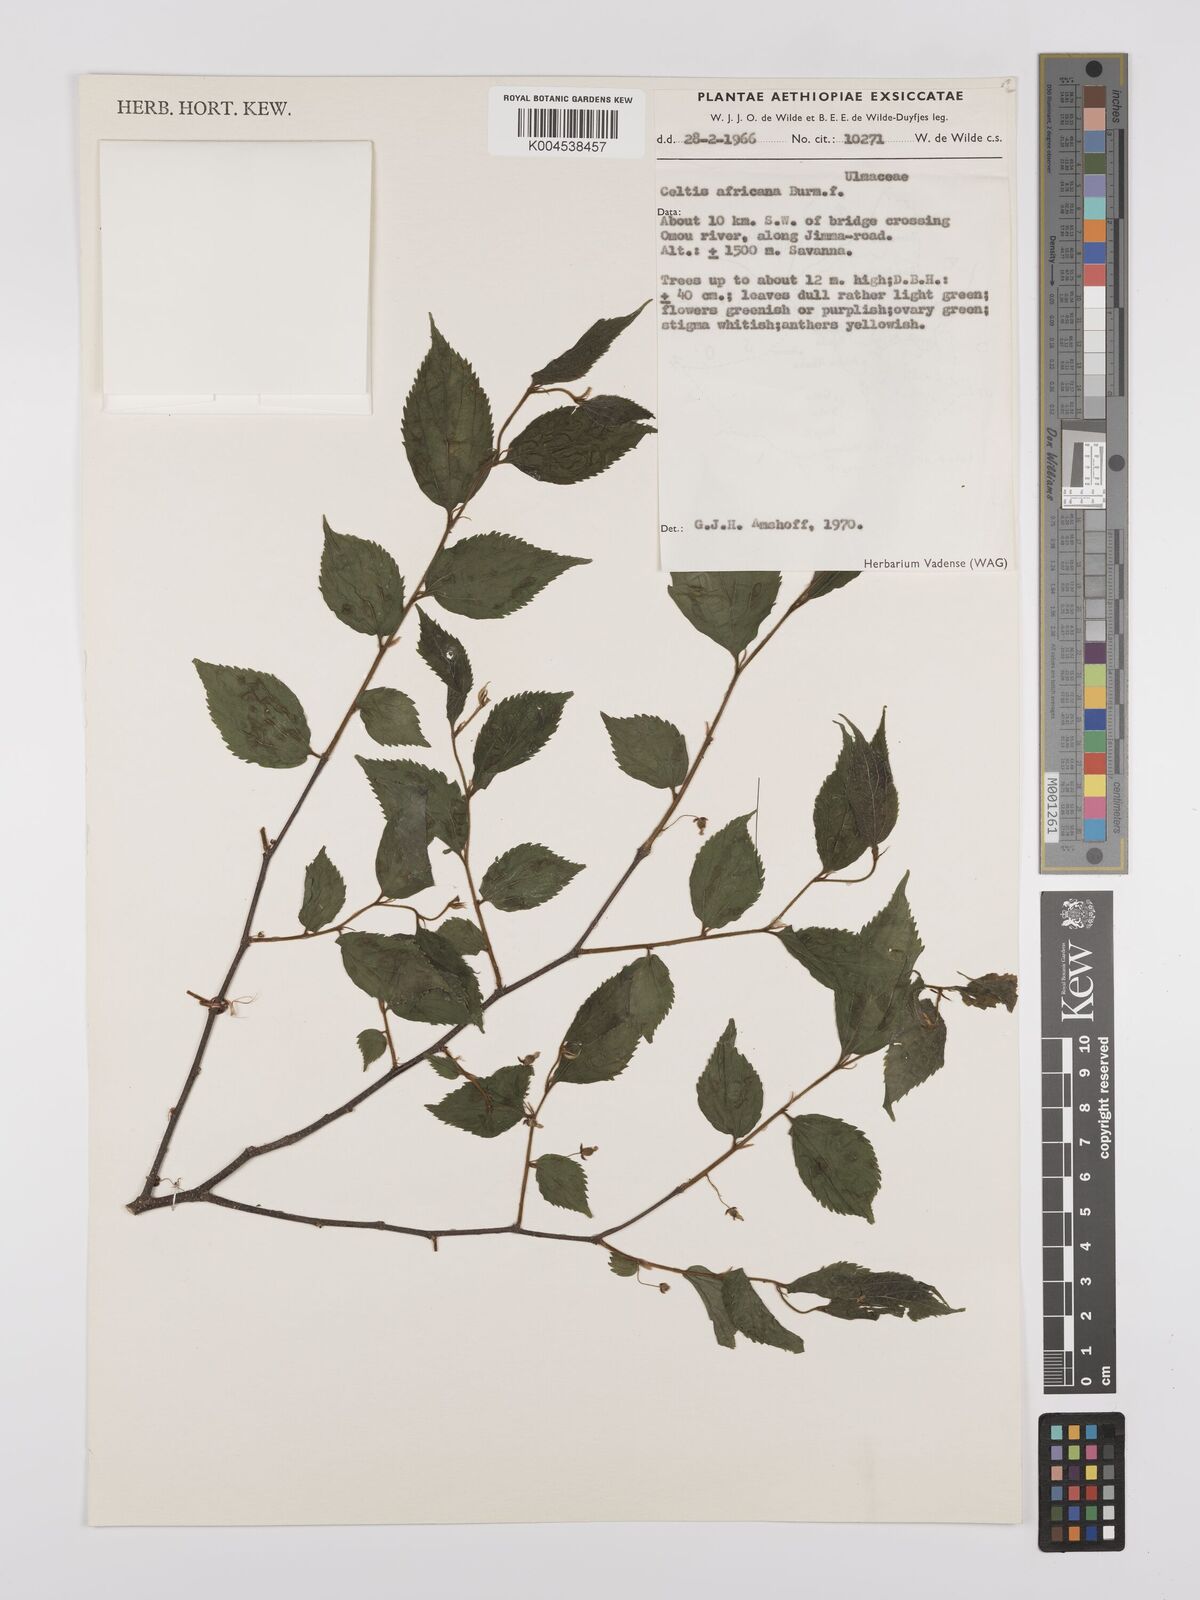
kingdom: Plantae
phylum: Tracheophyta
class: Magnoliopsida
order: Rosales
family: Cannabaceae
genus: Celtis
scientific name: Celtis africana
